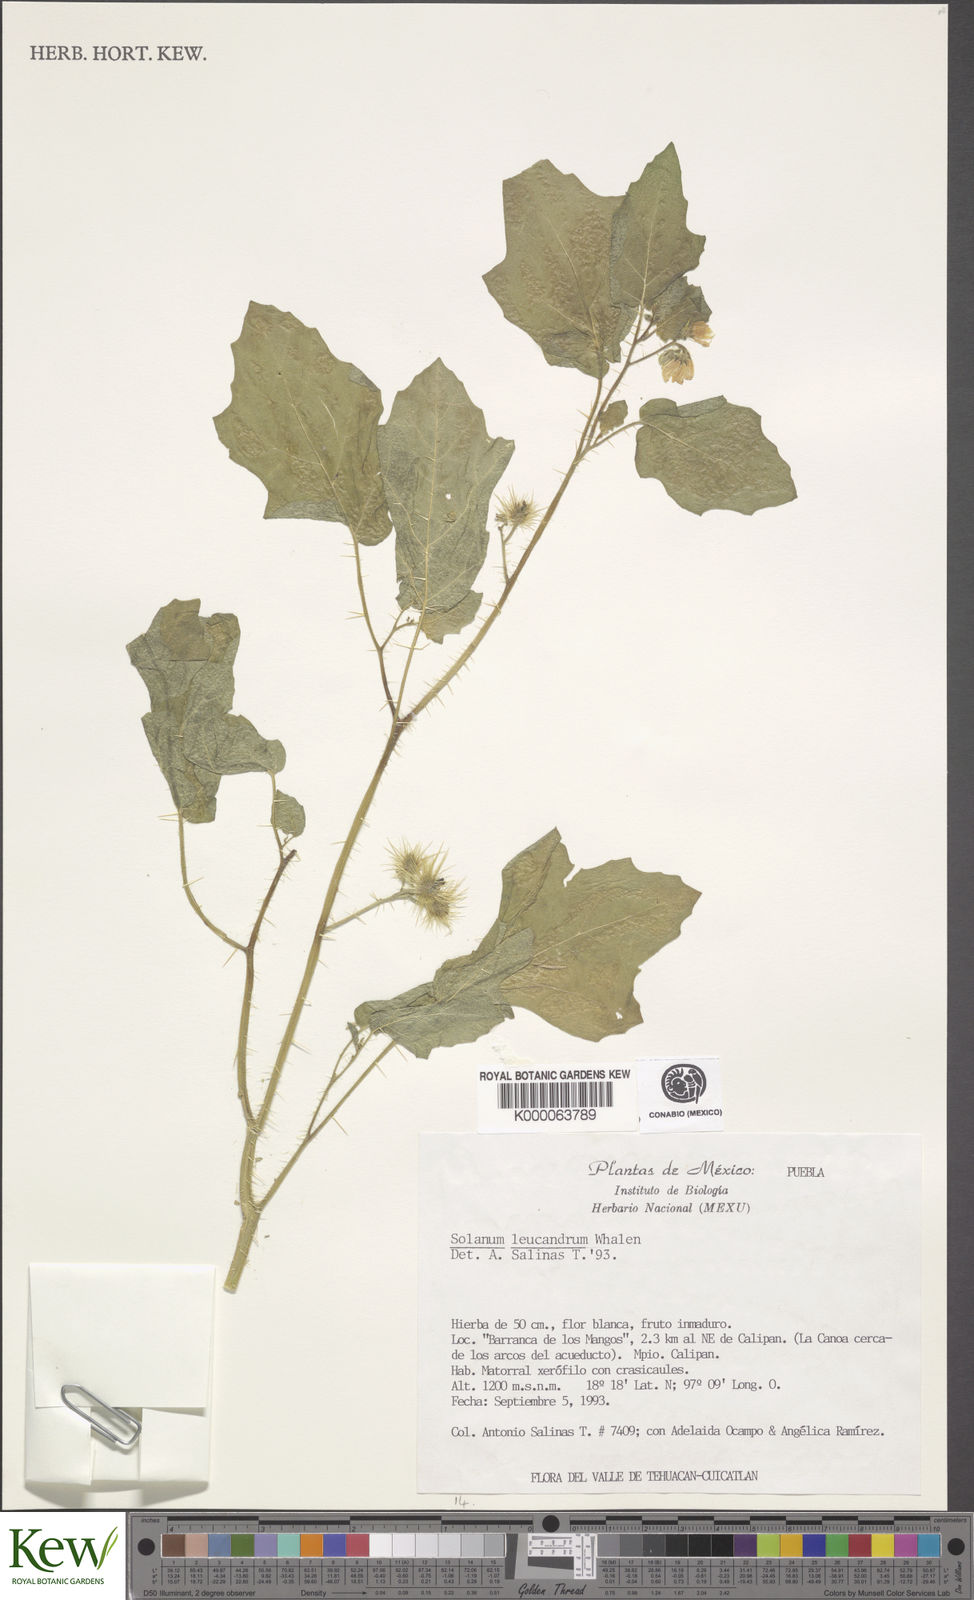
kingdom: Plantae
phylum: Tracheophyta
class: Magnoliopsida
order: Solanales
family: Solanaceae
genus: Solanum
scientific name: Solanum leucandrum
